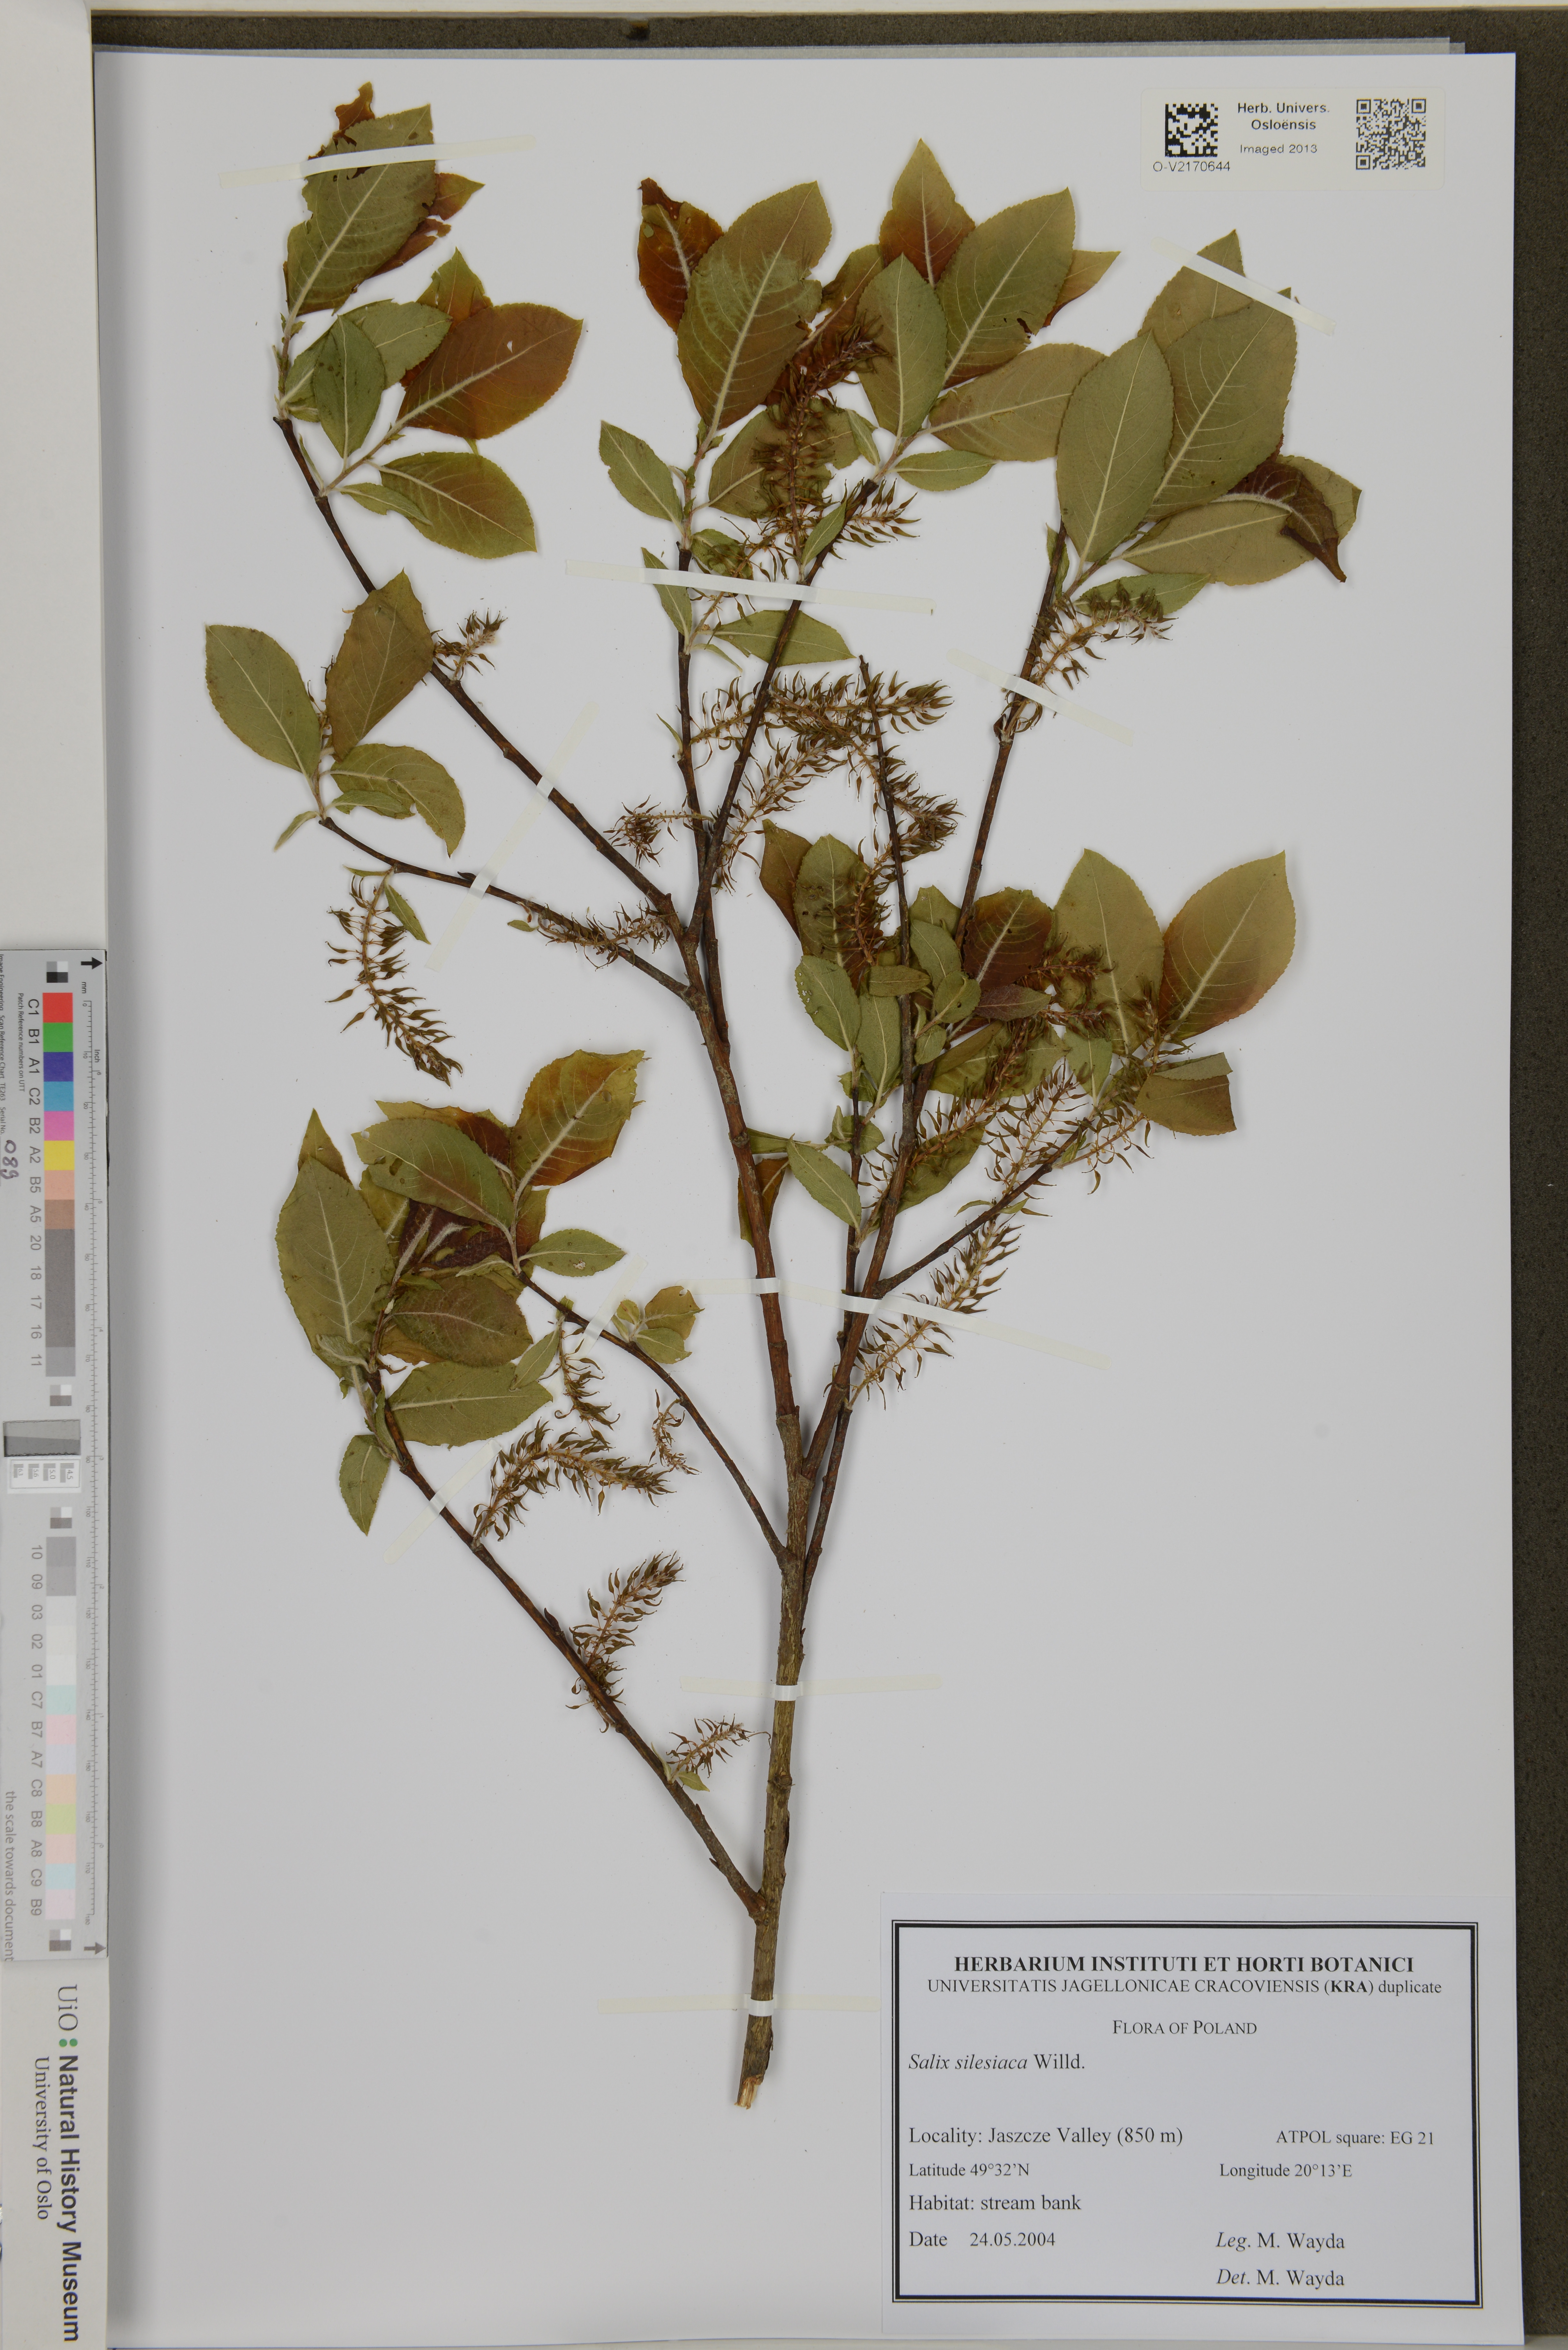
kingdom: Plantae
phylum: Tracheophyta
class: Magnoliopsida
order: Malpighiales
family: Salicaceae
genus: Salix
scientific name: Salix silesiaca
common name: Silesian willow
